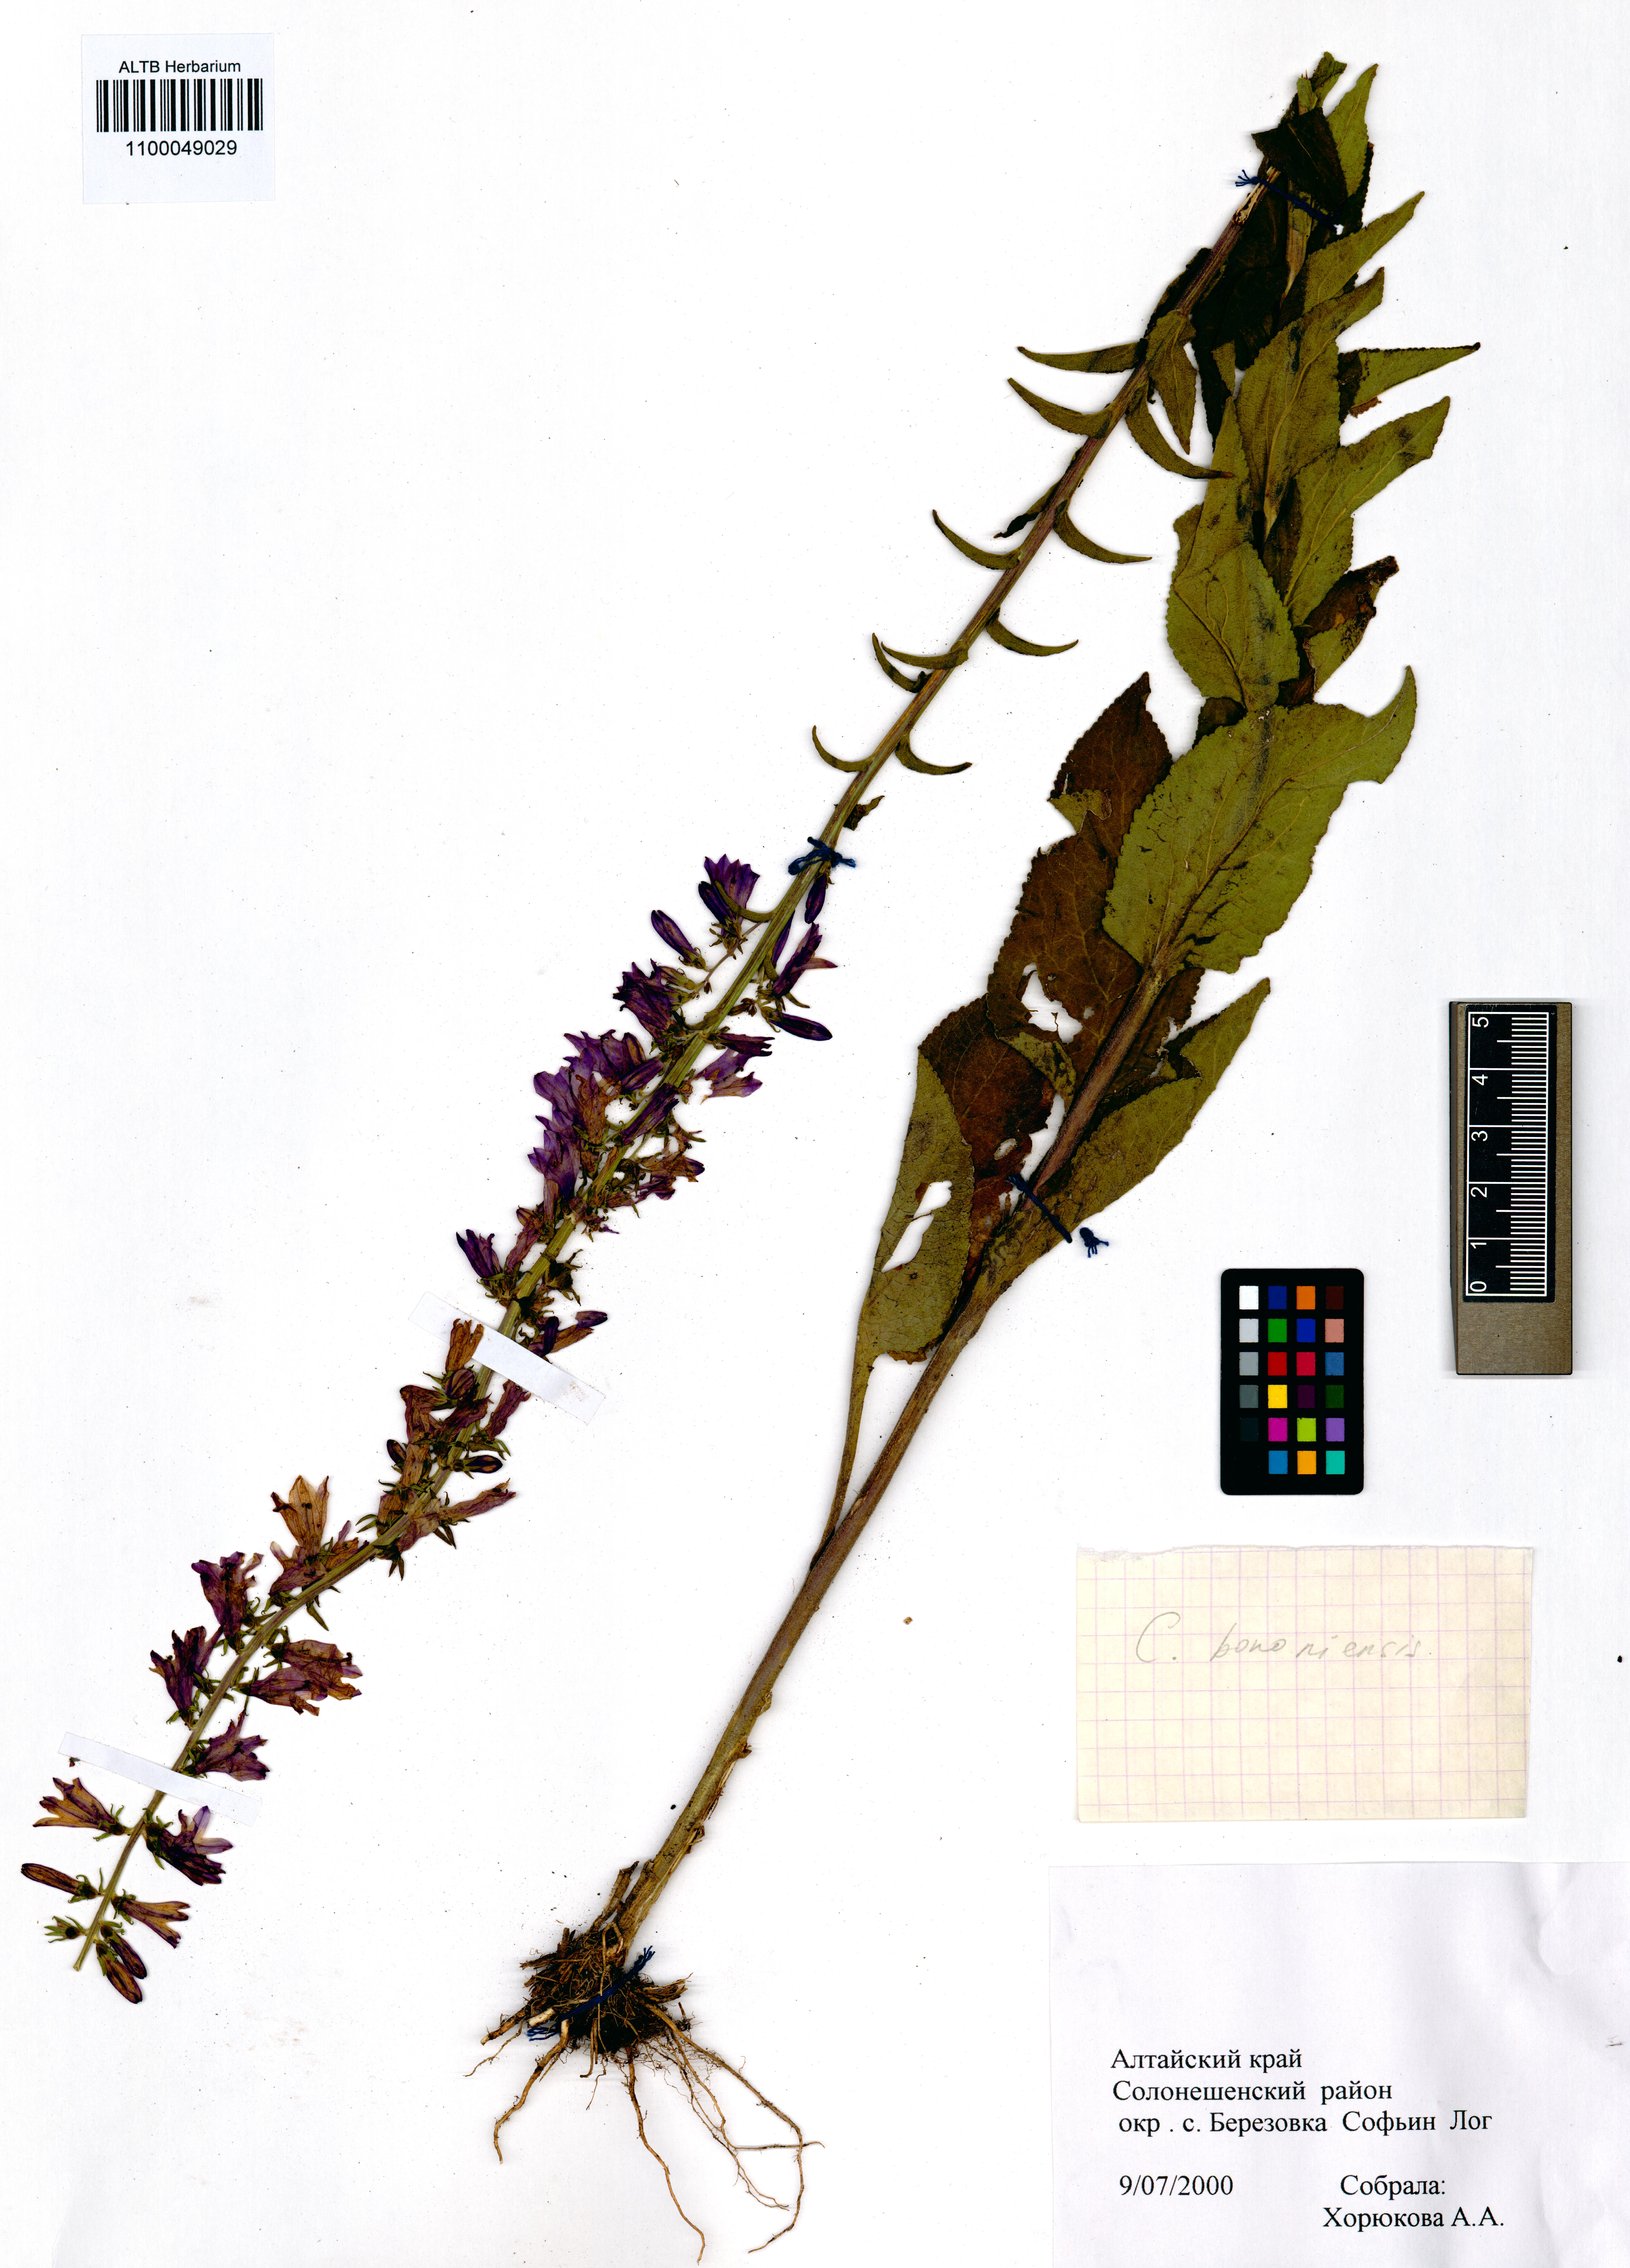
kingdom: Plantae
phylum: Tracheophyta
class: Magnoliopsida
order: Asterales
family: Campanulaceae
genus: Campanula
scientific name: Campanula bononiensis
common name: Pale bellflower
